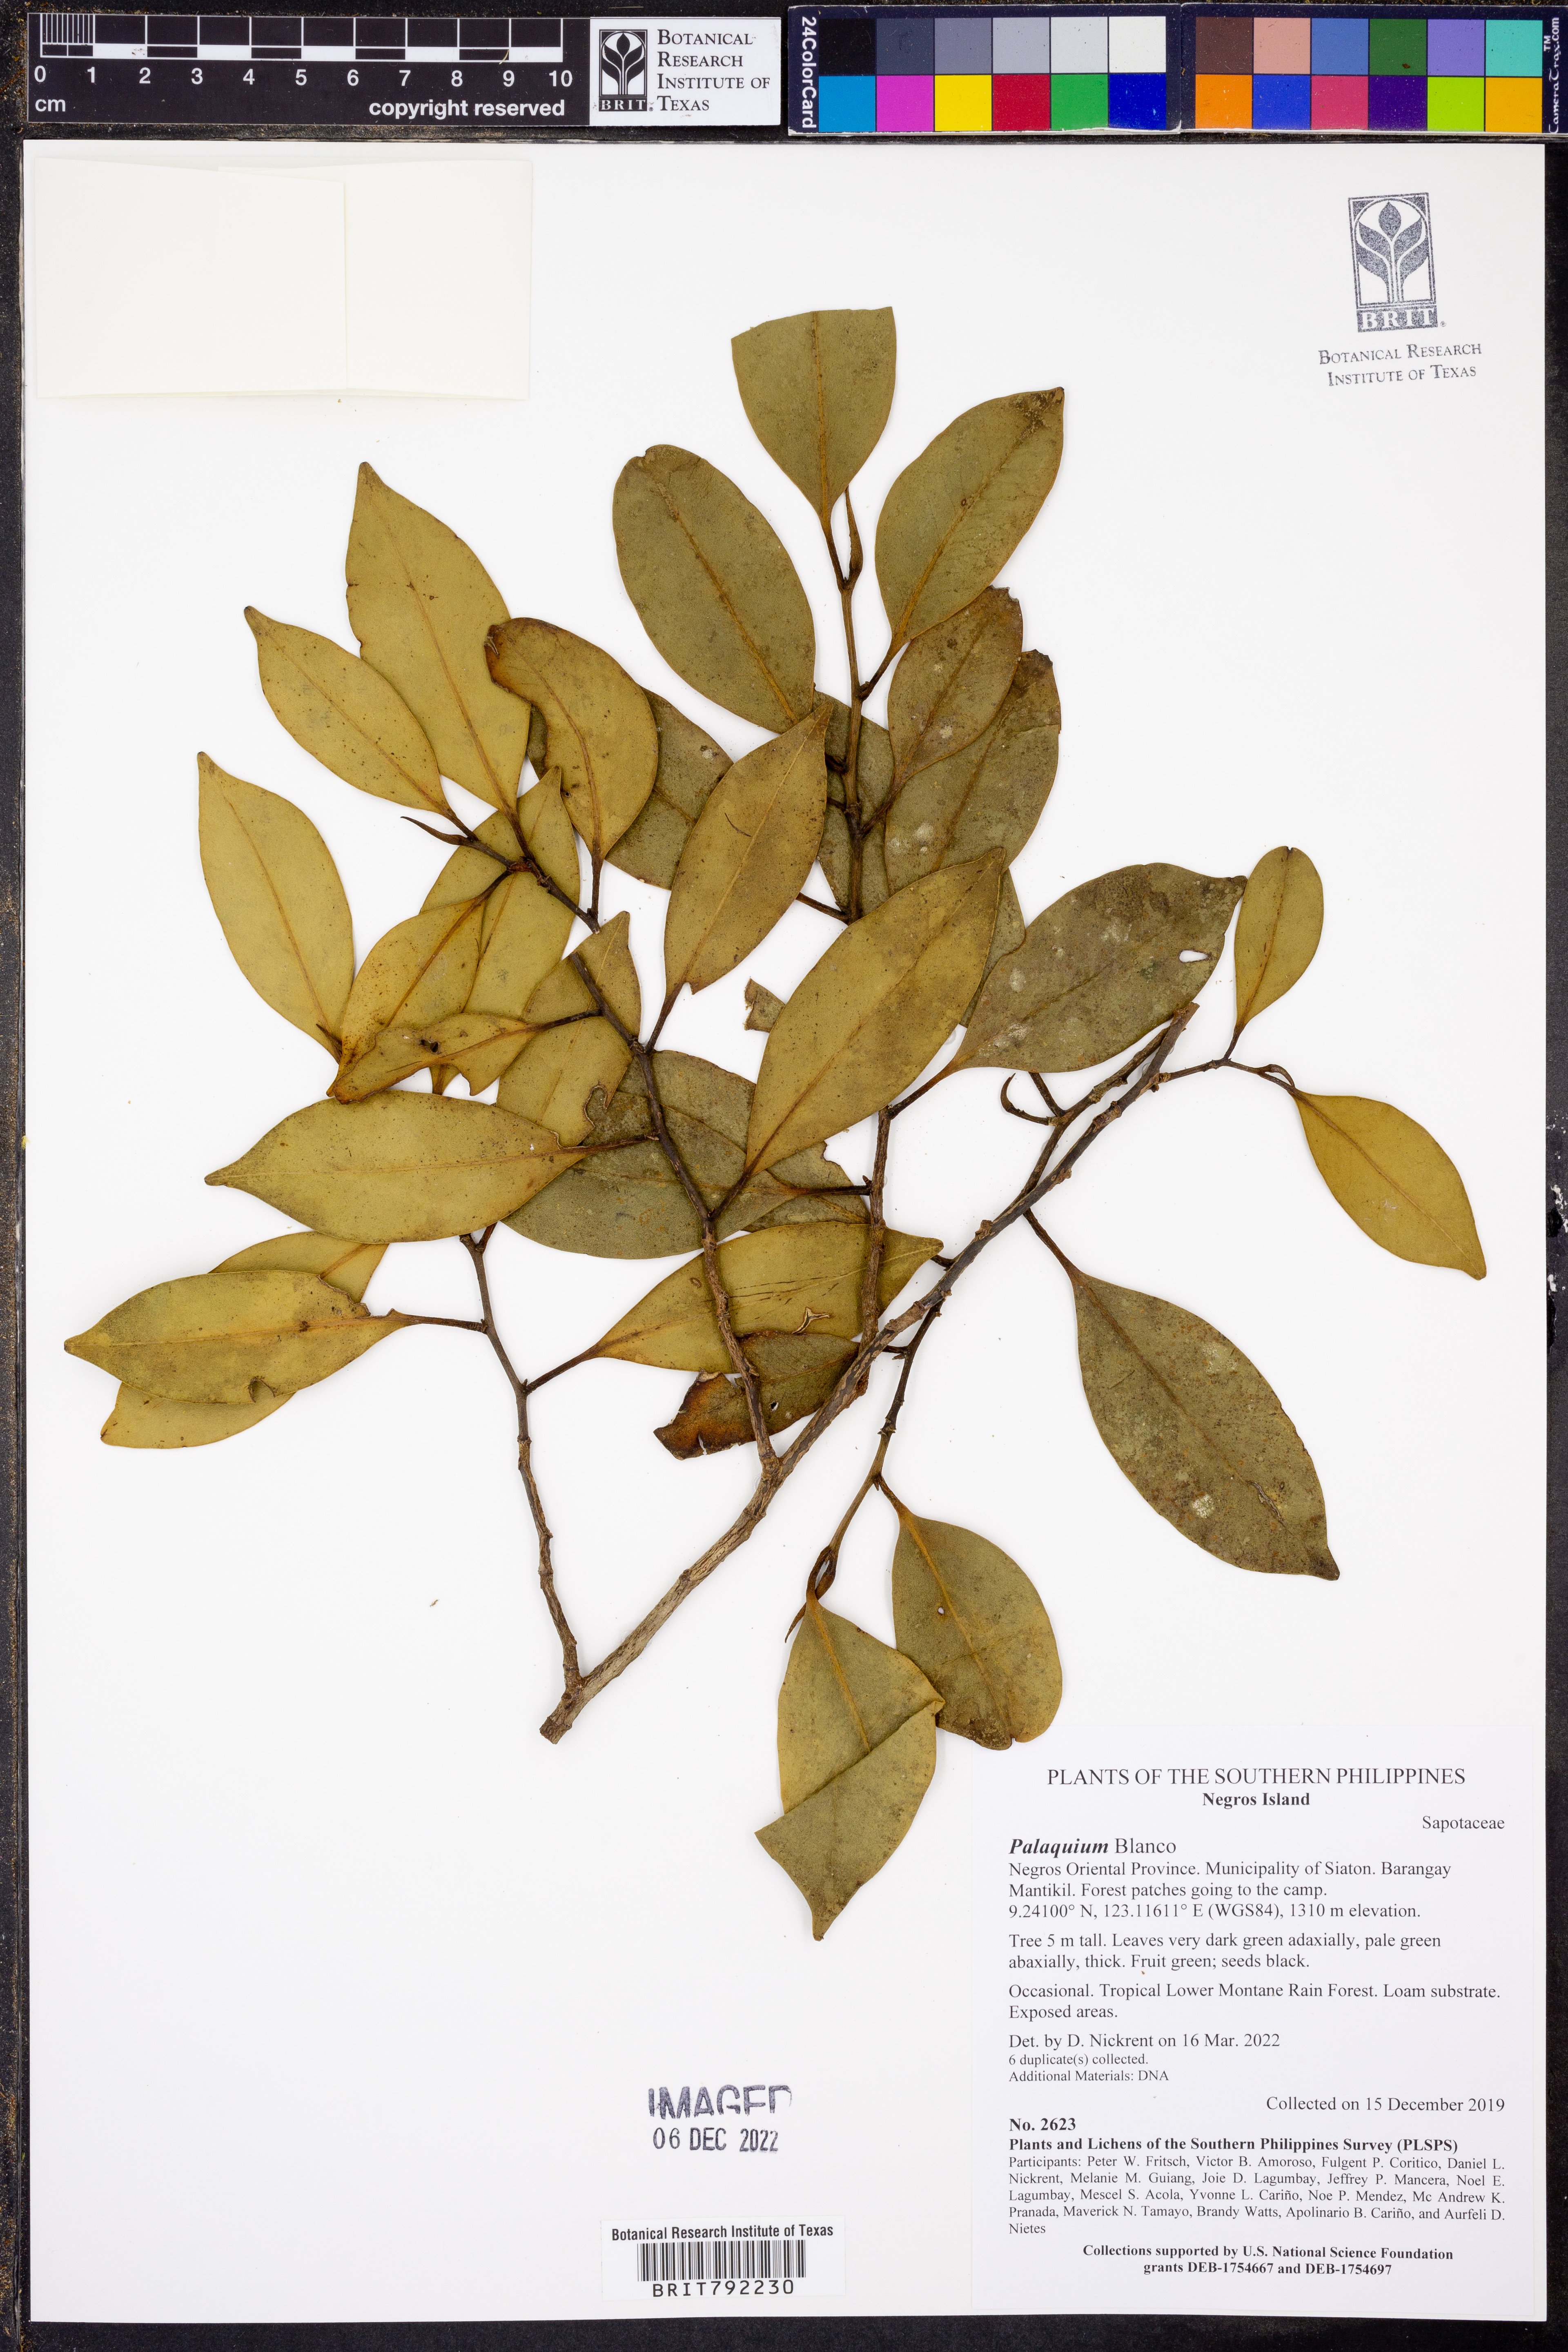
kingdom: Plantae
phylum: Tracheophyta
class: Magnoliopsida
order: Ericales
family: Sapotaceae
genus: Palaquium
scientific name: Palaquium
